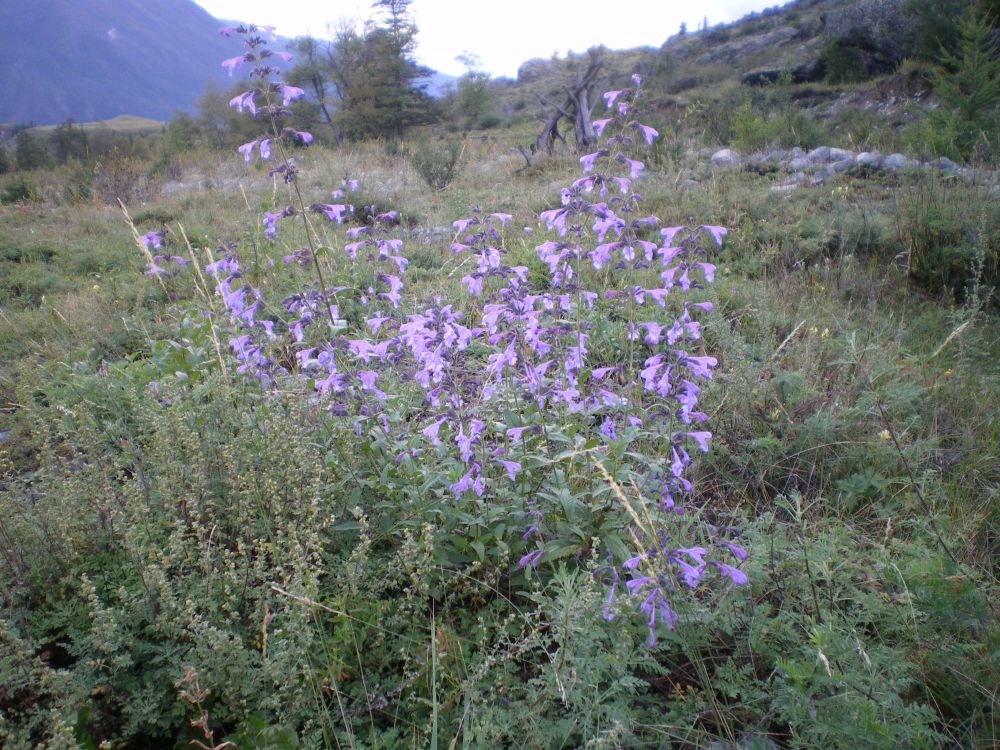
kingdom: Plantae
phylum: Tracheophyta
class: Magnoliopsida
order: Lamiales
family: Lamiaceae
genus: Nepeta
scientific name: Nepeta sibirica
